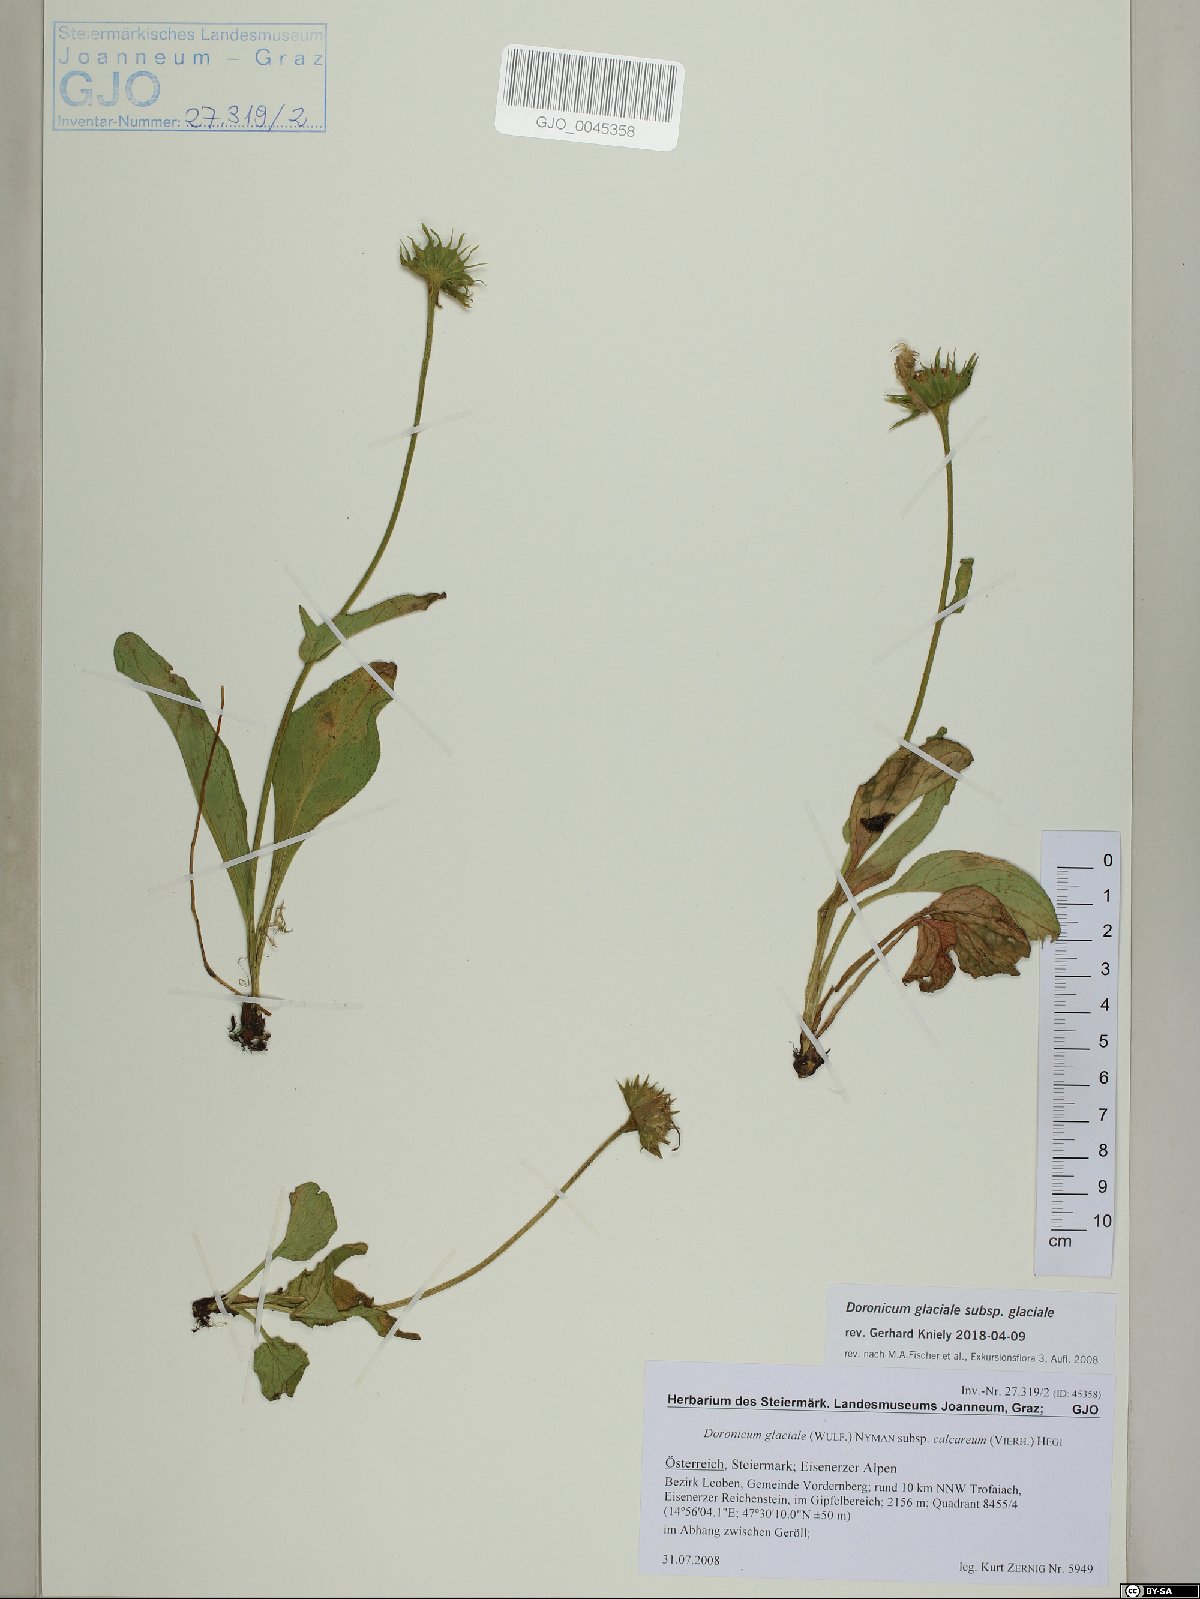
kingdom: Plantae
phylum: Tracheophyta
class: Magnoliopsida
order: Asterales
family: Asteraceae
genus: Doronicum
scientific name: Doronicum glaciale
